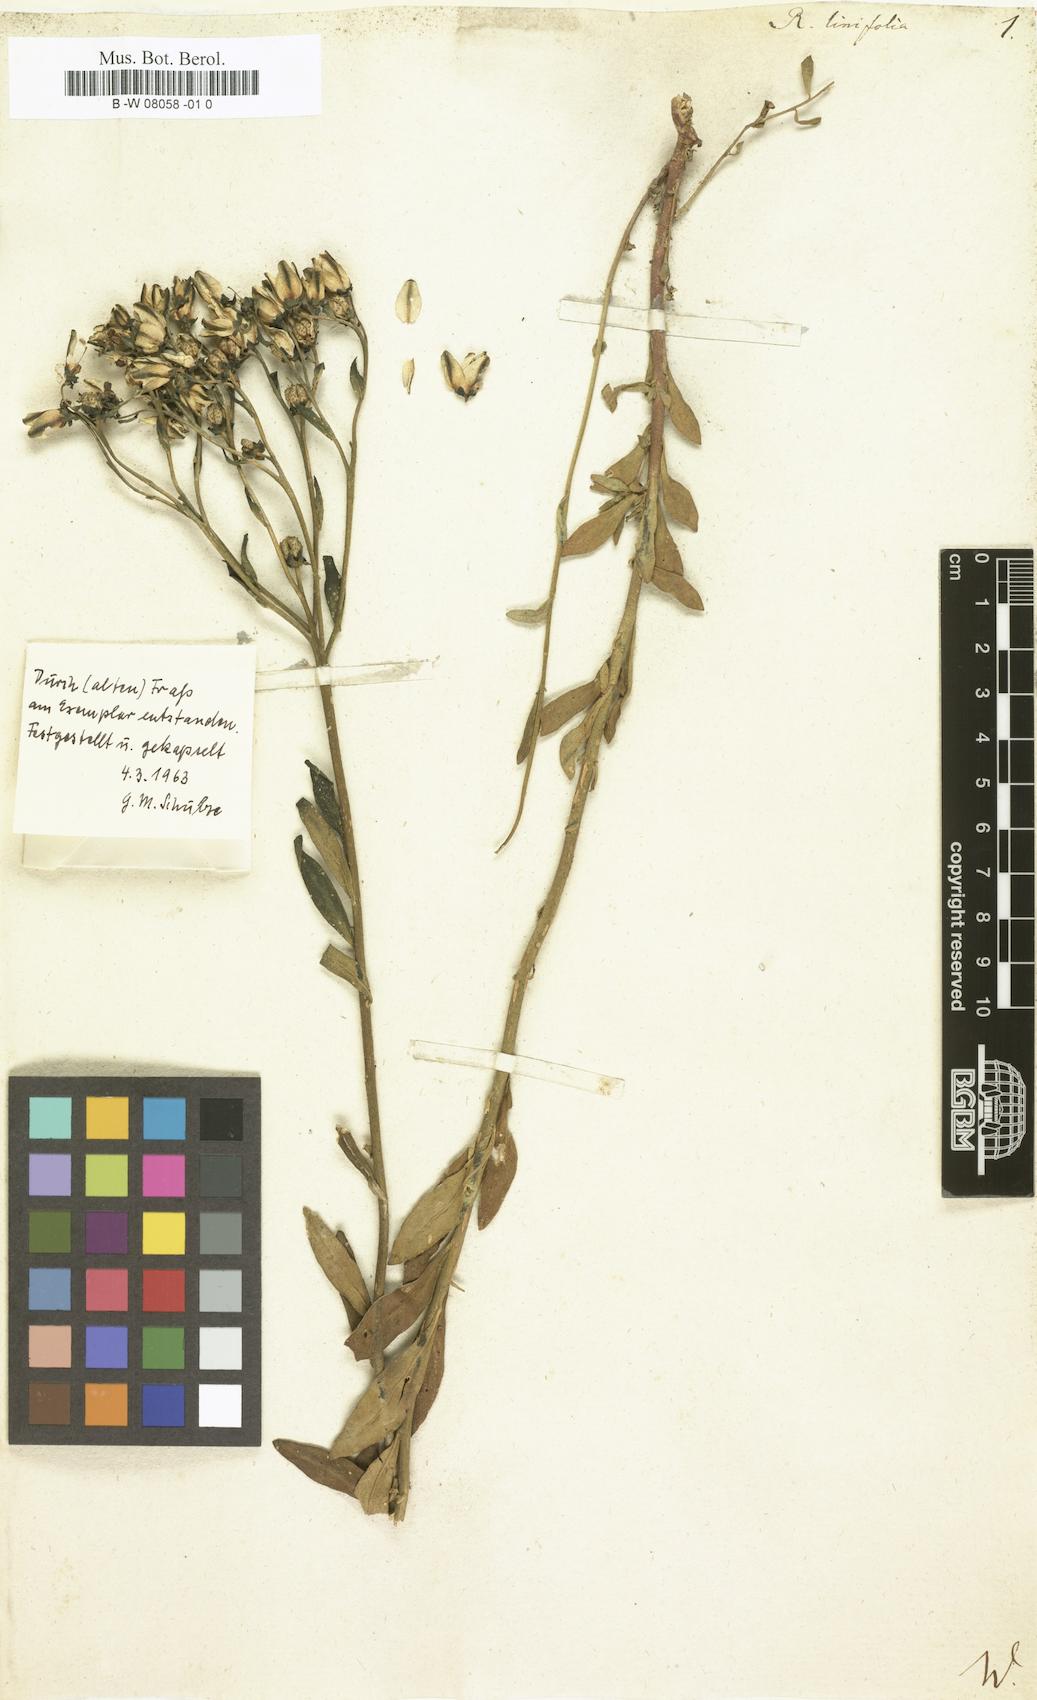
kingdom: Plantae
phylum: Tracheophyta
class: Magnoliopsida
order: Sapindales
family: Rutaceae
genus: Haplophyllum
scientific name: Haplophyllum
